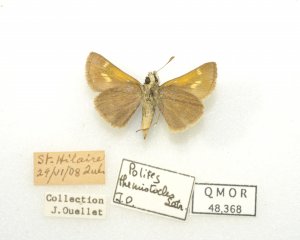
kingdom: Animalia
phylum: Arthropoda
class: Insecta
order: Lepidoptera
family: Hesperiidae
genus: Polites
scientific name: Polites themistocles
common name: Tawny-edged Skipper
